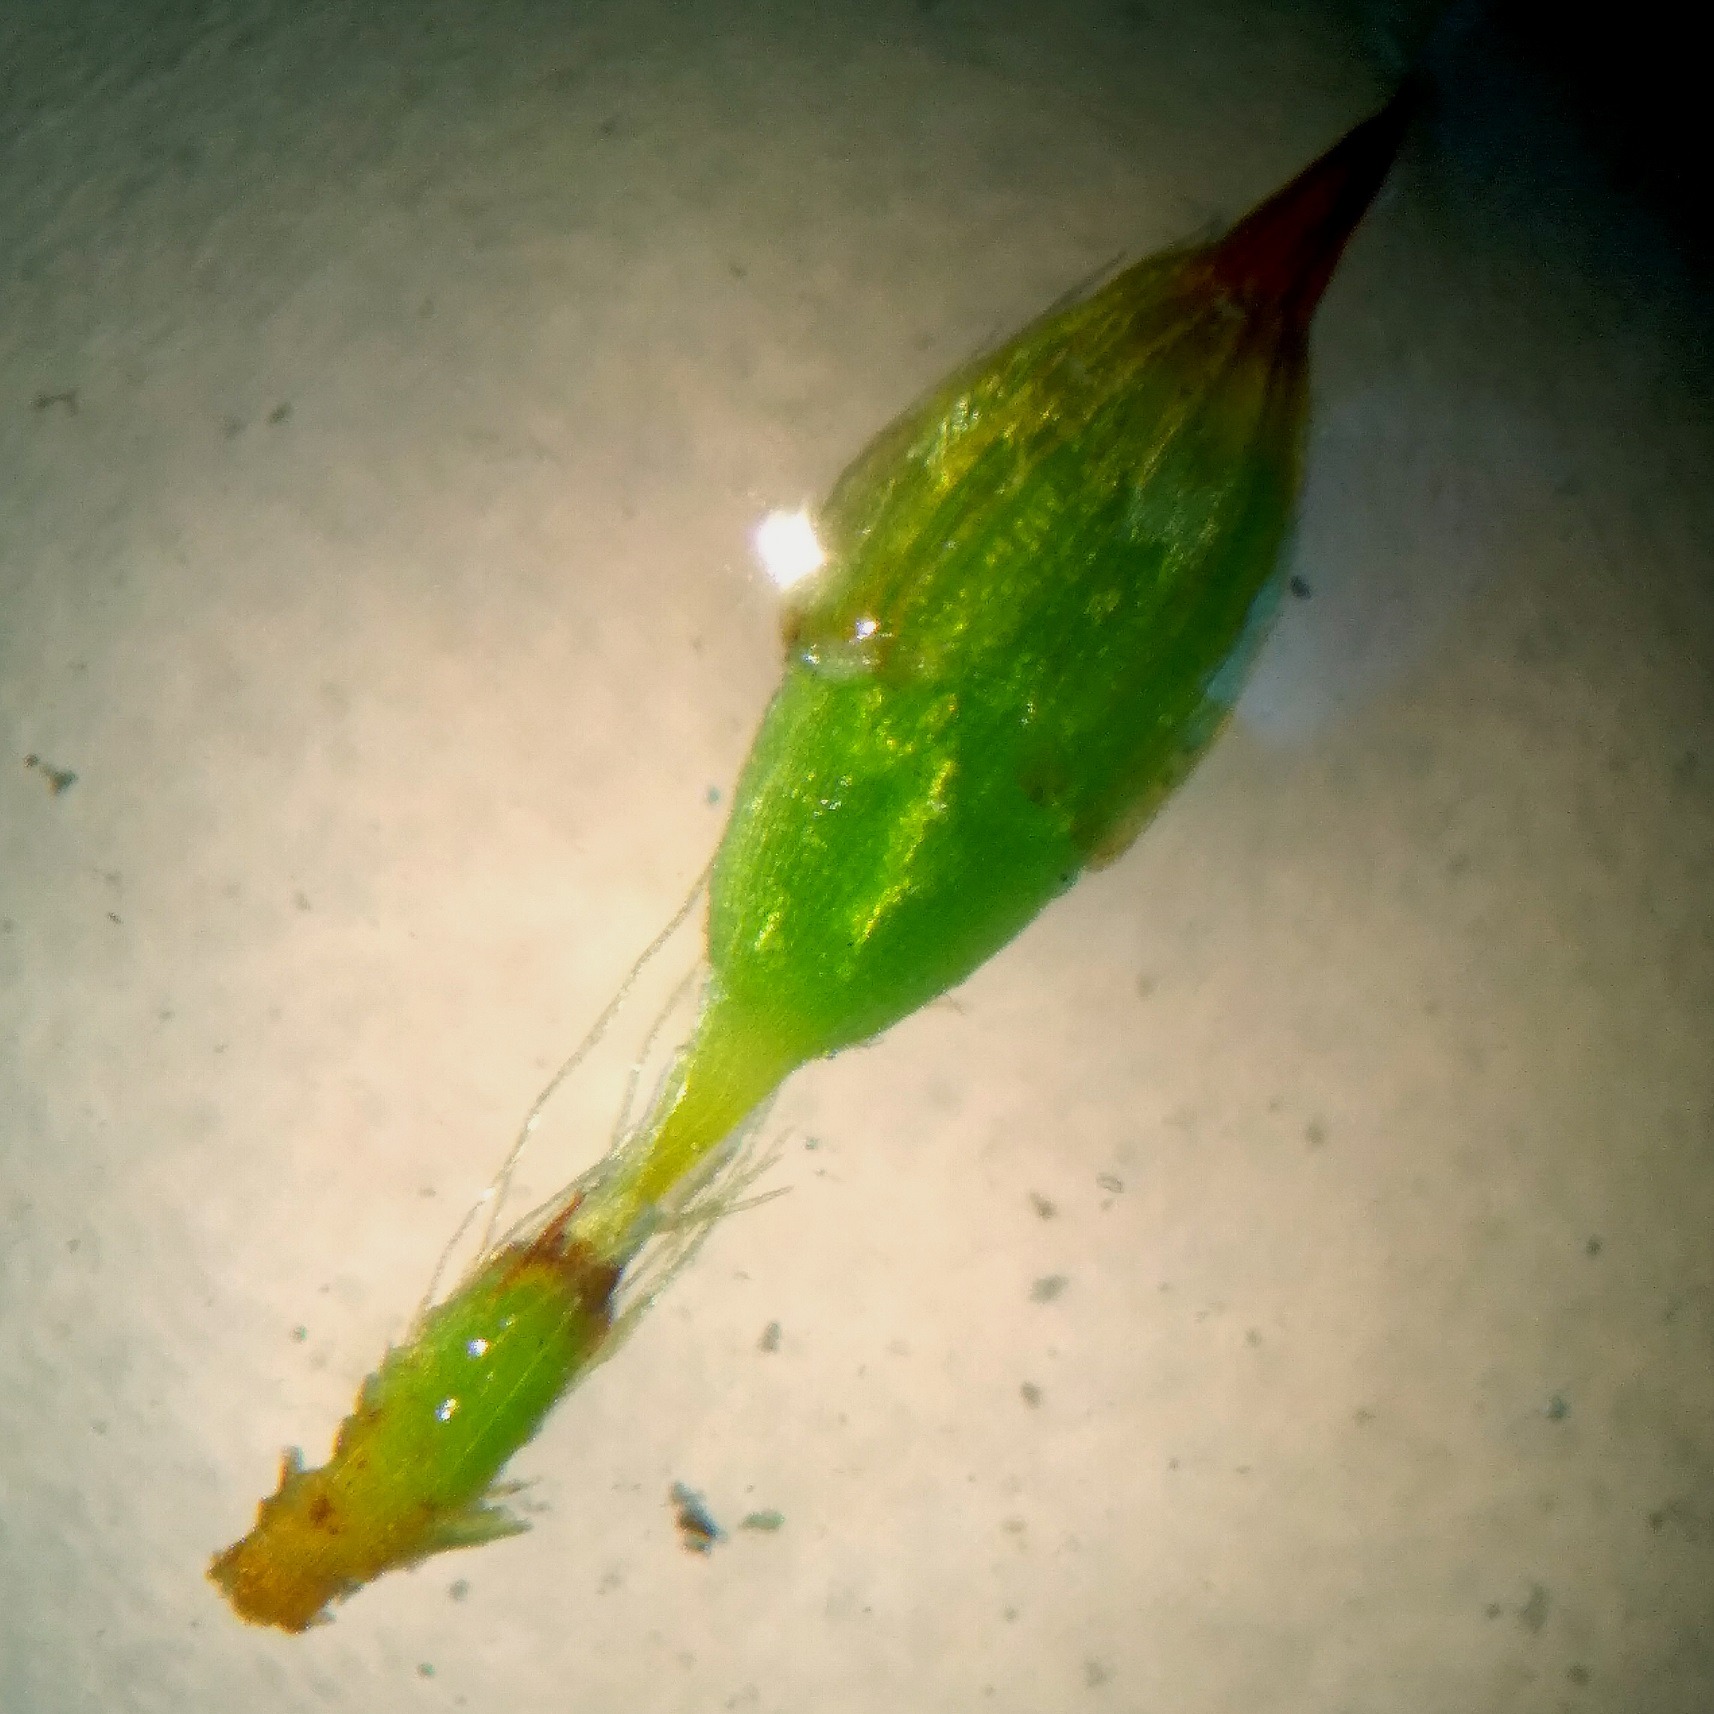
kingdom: Plantae
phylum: Bryophyta
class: Bryopsida
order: Orthotrichales
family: Orthotrichaceae
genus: Orthotrichum
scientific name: Orthotrichum stramineum
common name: Strågul furehætte
